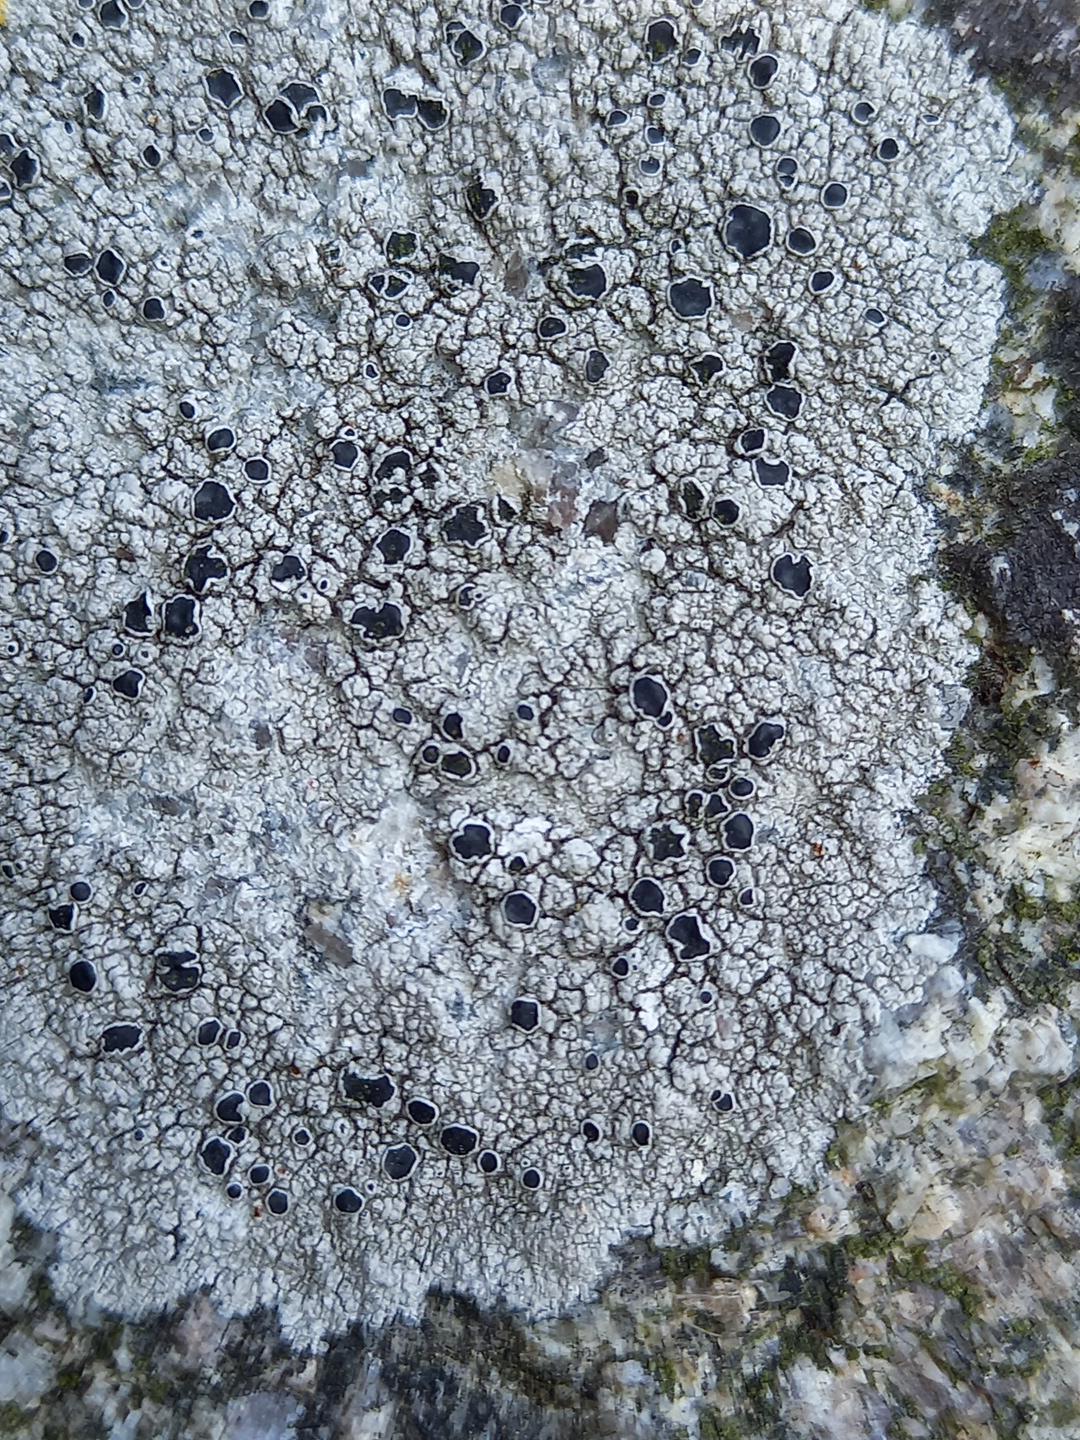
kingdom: Fungi
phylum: Ascomycota
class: Lecanoromycetes
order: Lecanorales
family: Tephromelataceae
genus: Tephromela
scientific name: Tephromela atra
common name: sortfrugtet kantskivelav
